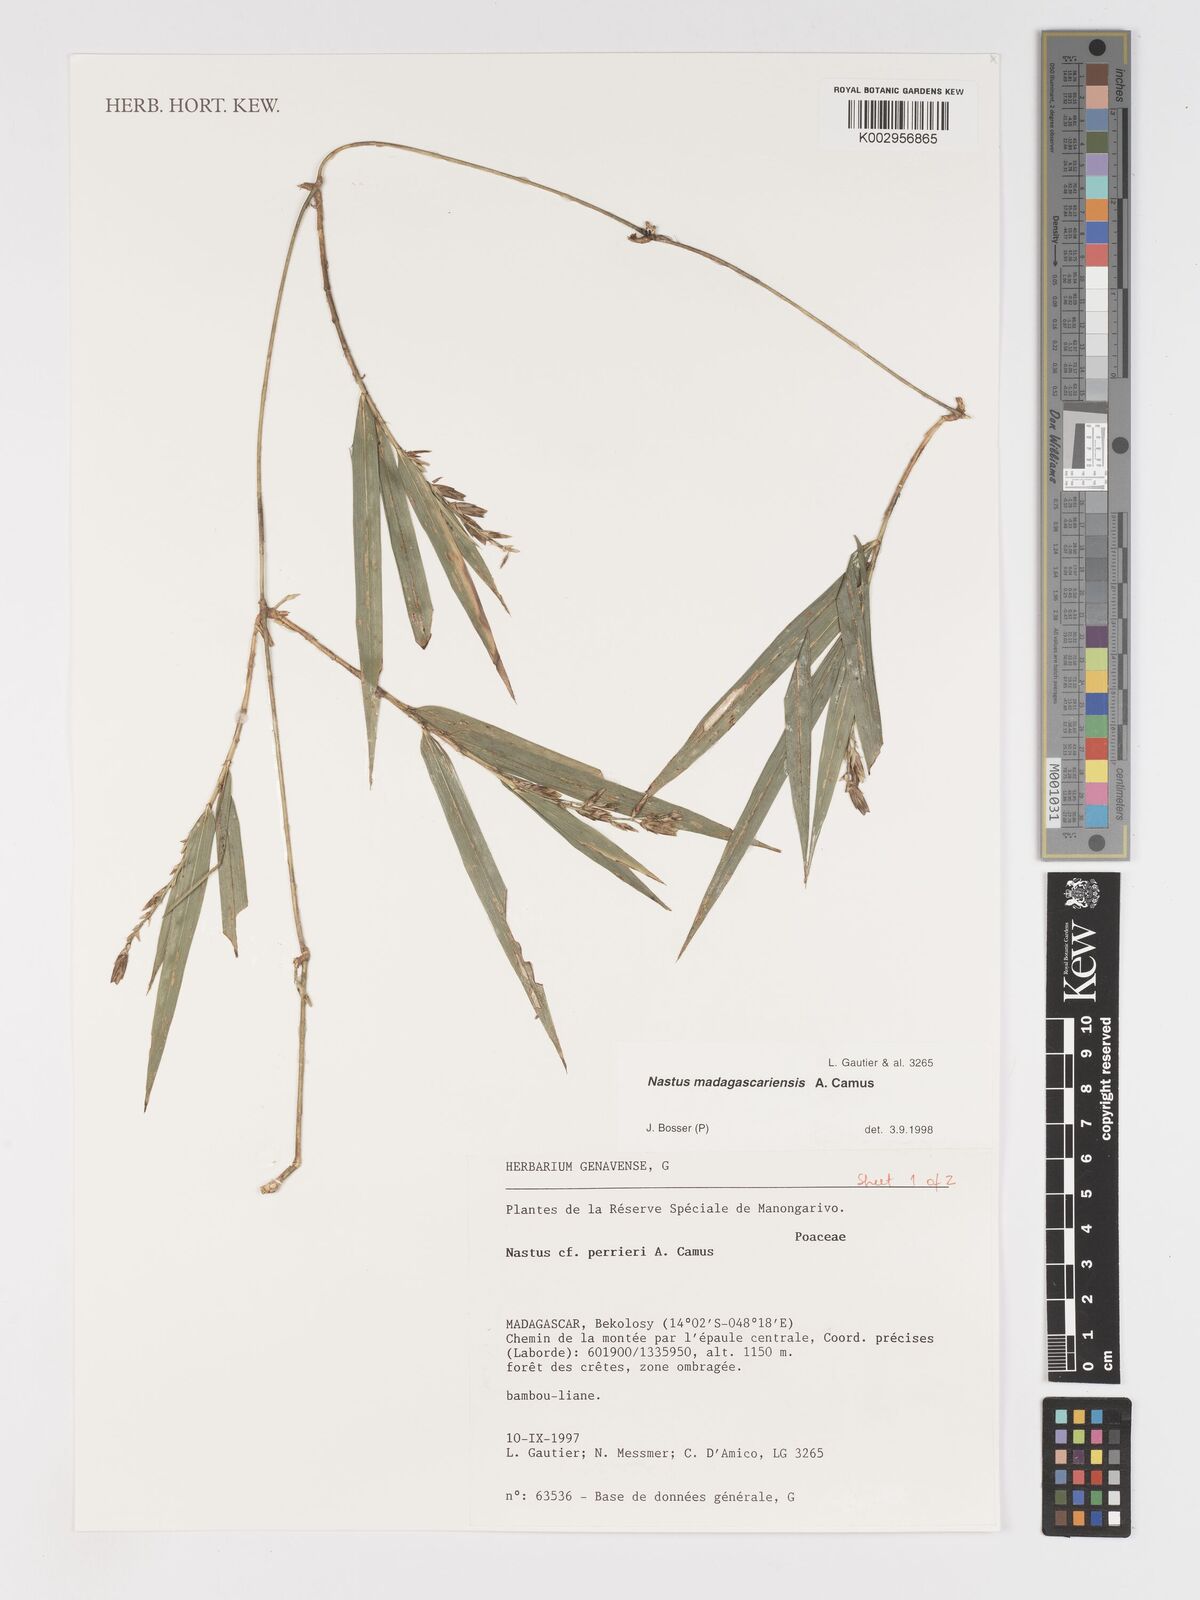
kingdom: Plantae
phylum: Tracheophyta
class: Liliopsida
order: Poales
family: Poaceae
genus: Nastus
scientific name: Nastus madagascariensis
